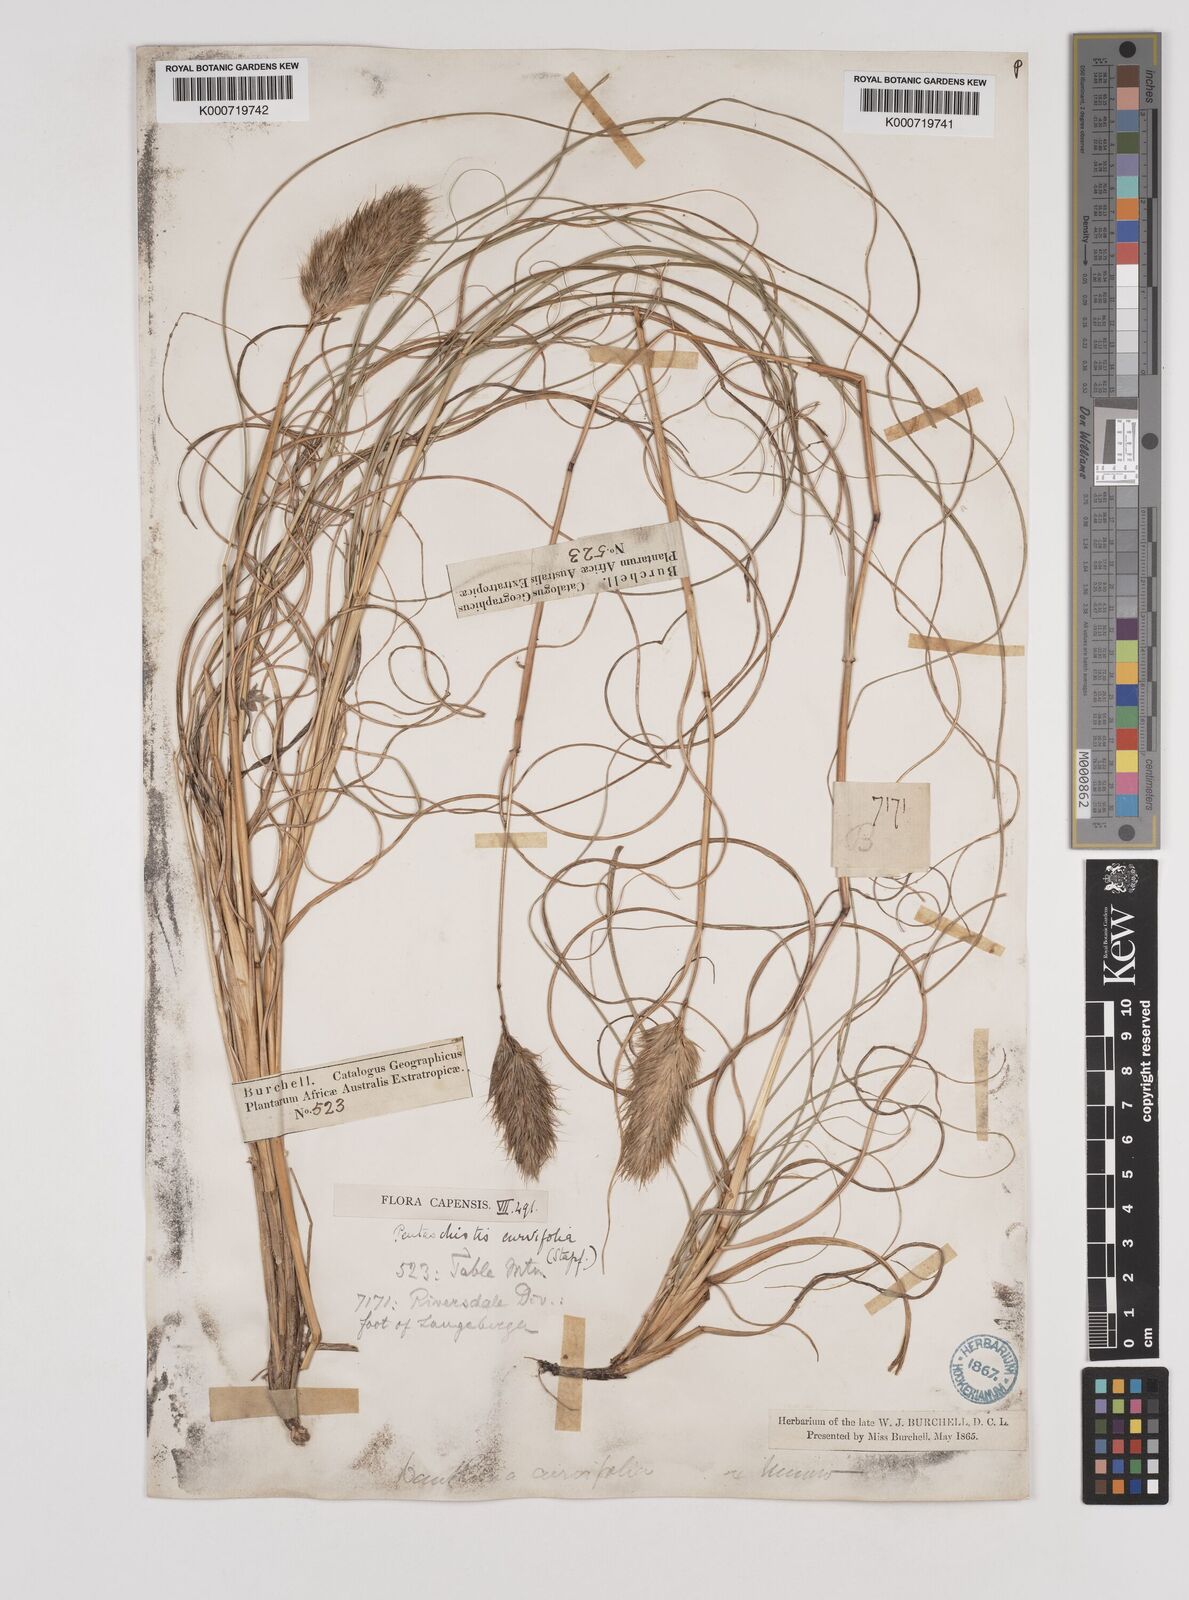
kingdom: Plantae
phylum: Tracheophyta
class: Liliopsida
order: Poales
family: Poaceae
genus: Pentameris
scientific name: Pentameris curvifolia
